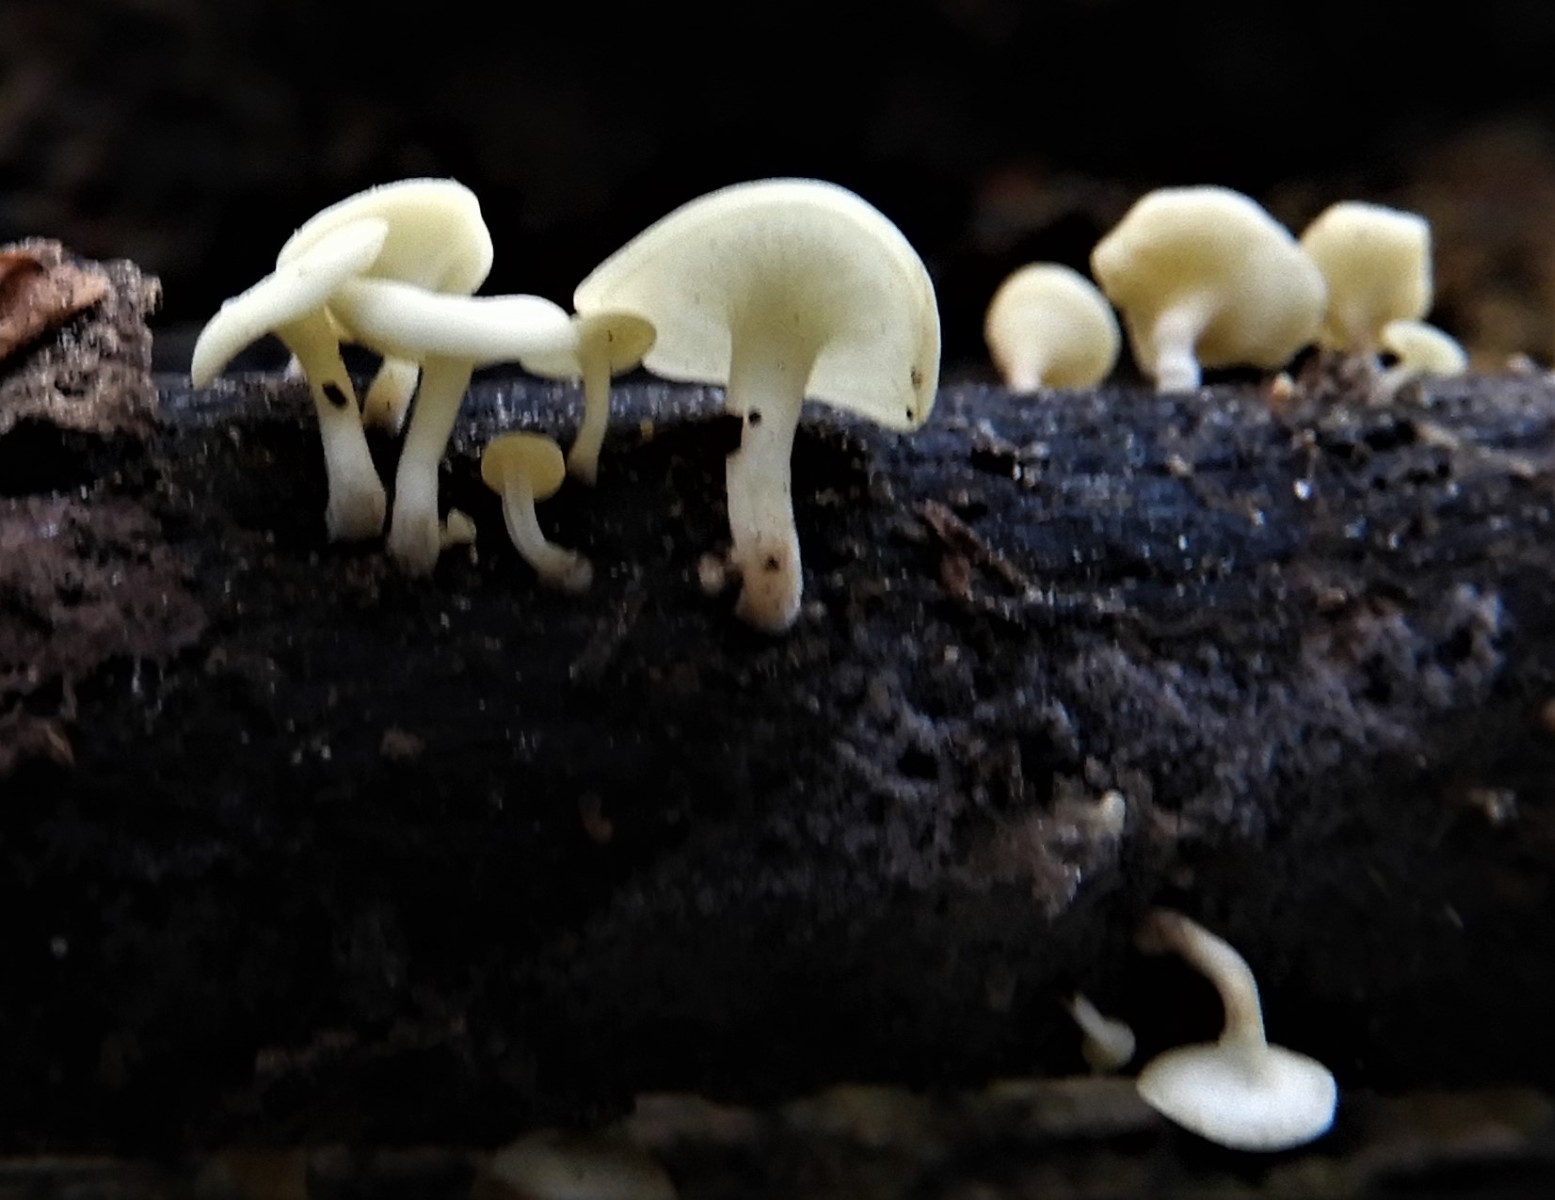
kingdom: Fungi
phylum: Ascomycota
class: Leotiomycetes
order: Helotiales
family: Helotiaceae
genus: Hymenoscyphus
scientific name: Hymenoscyphus
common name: stilkskive
